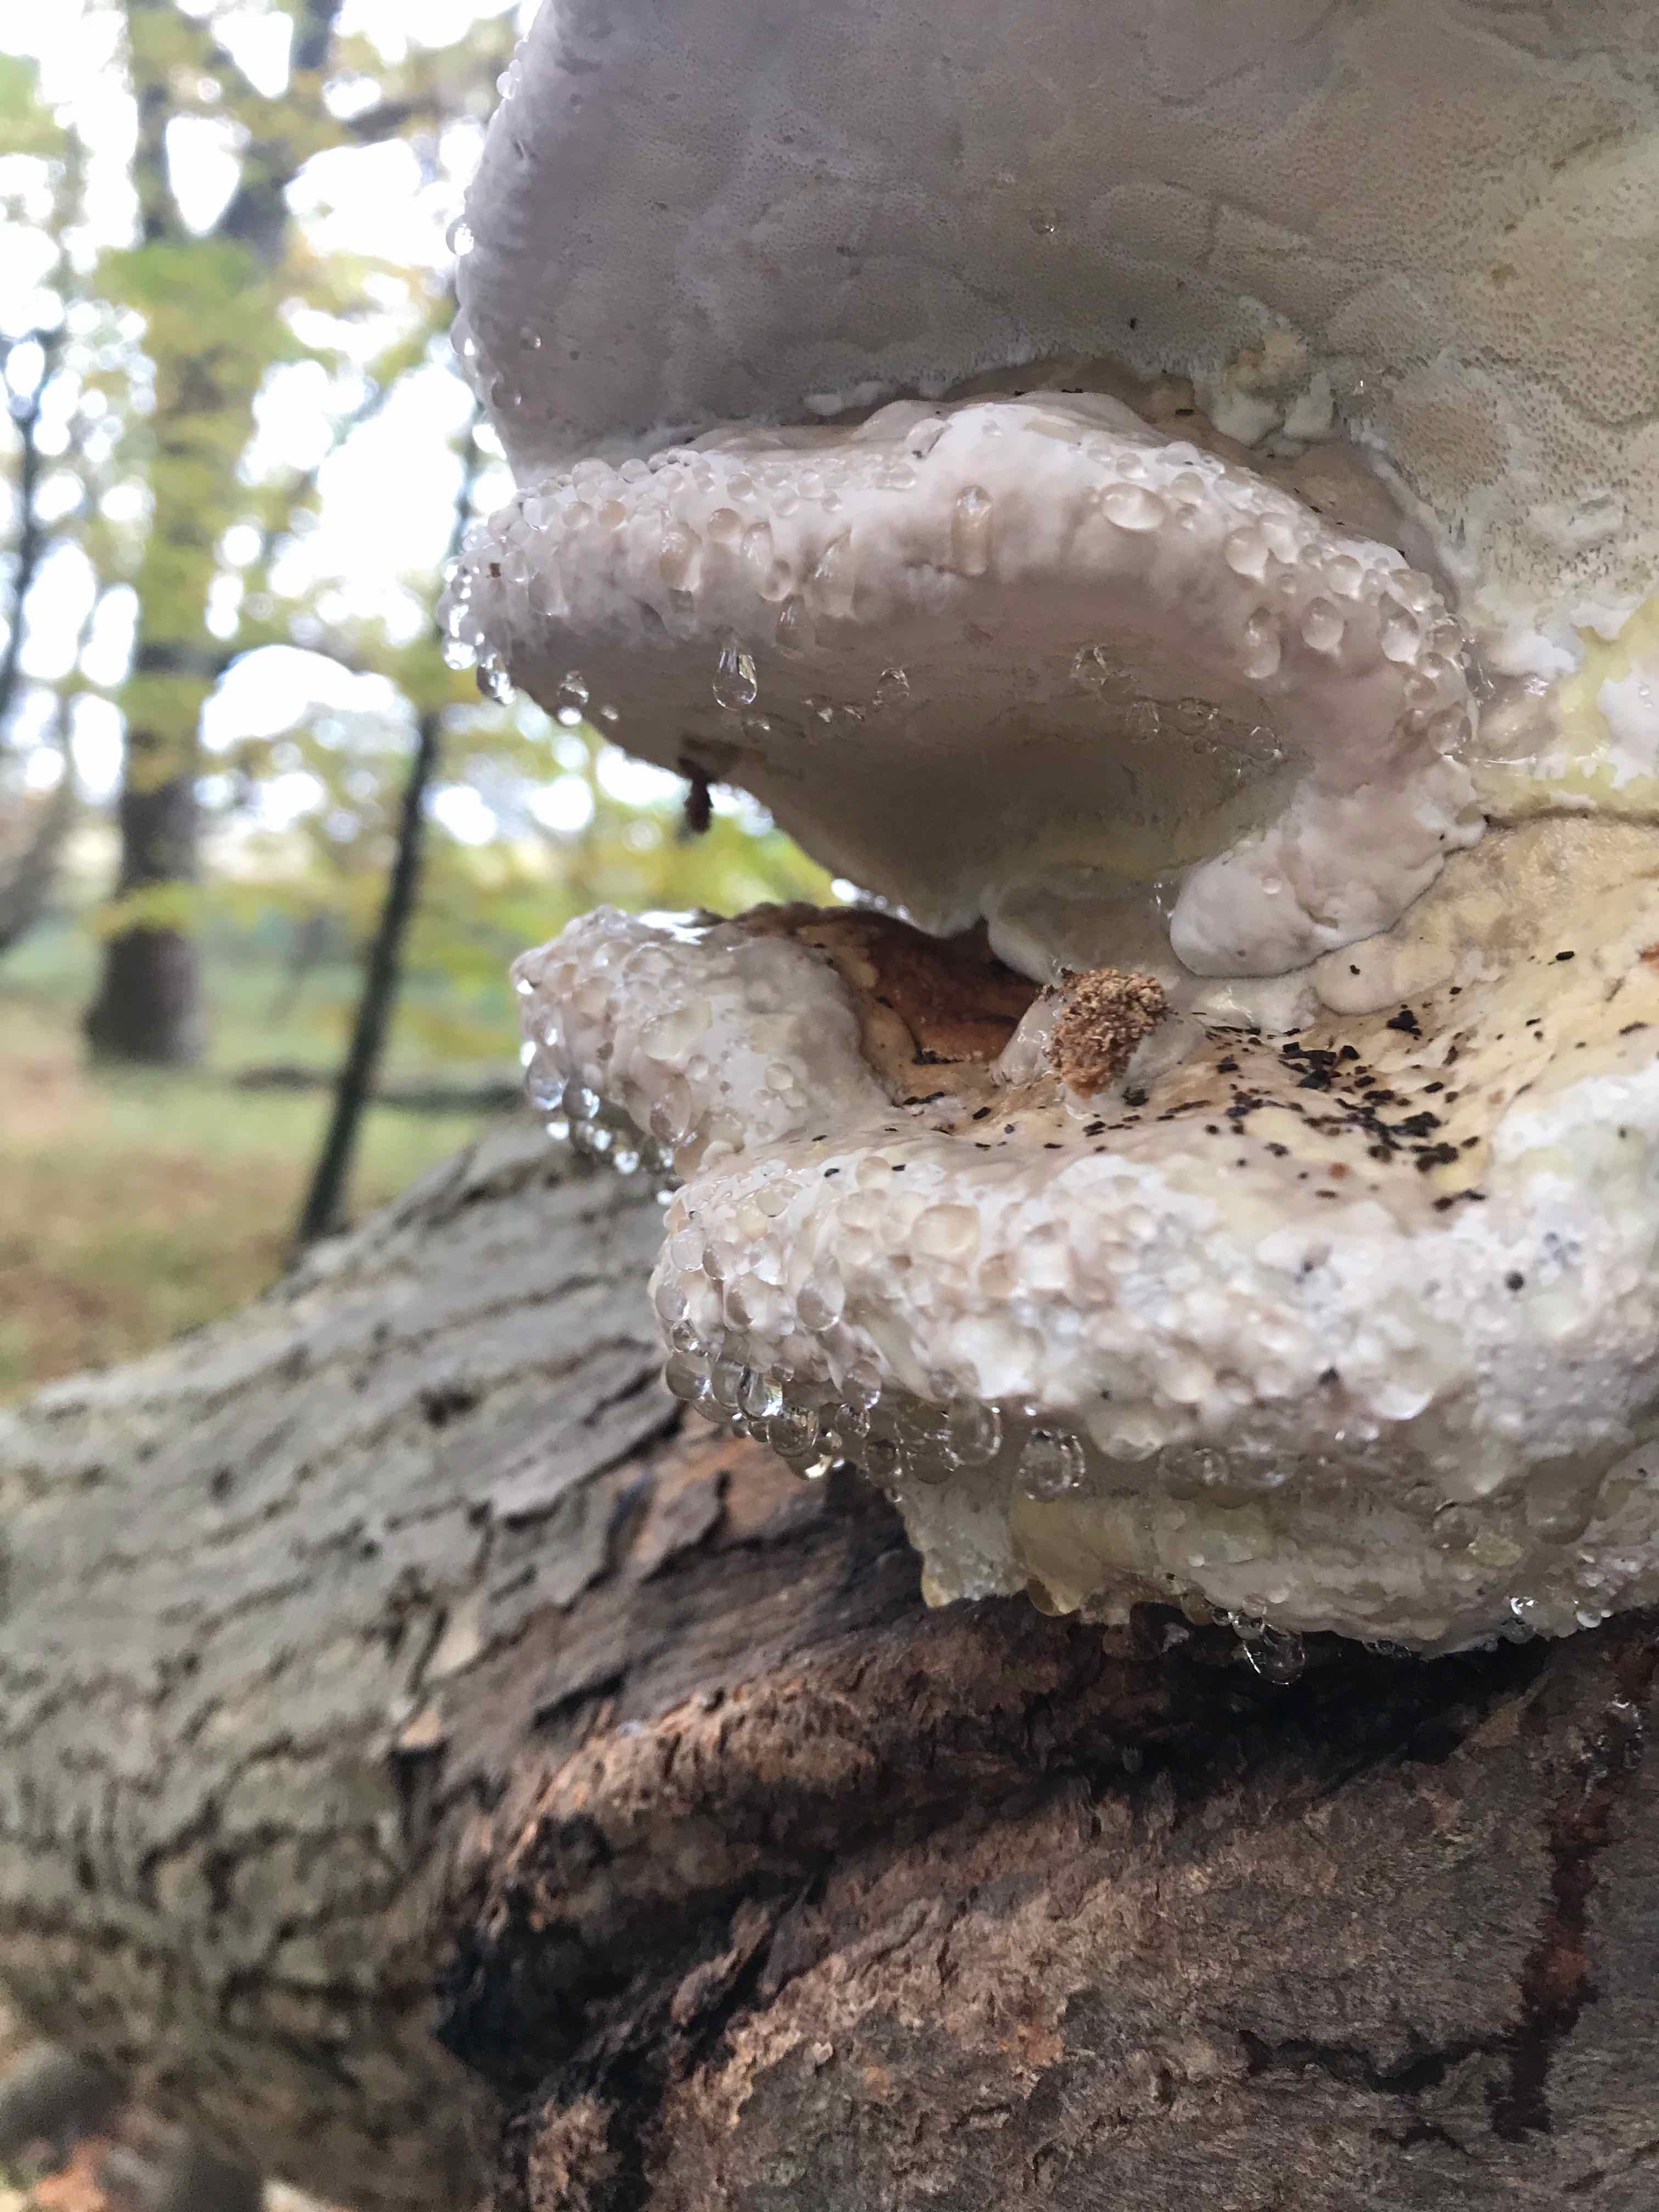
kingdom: Fungi
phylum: Basidiomycota
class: Agaricomycetes
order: Polyporales
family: Fomitopsidaceae
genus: Fomitopsis
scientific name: Fomitopsis pinicola
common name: randbæltet hovporesvamp
